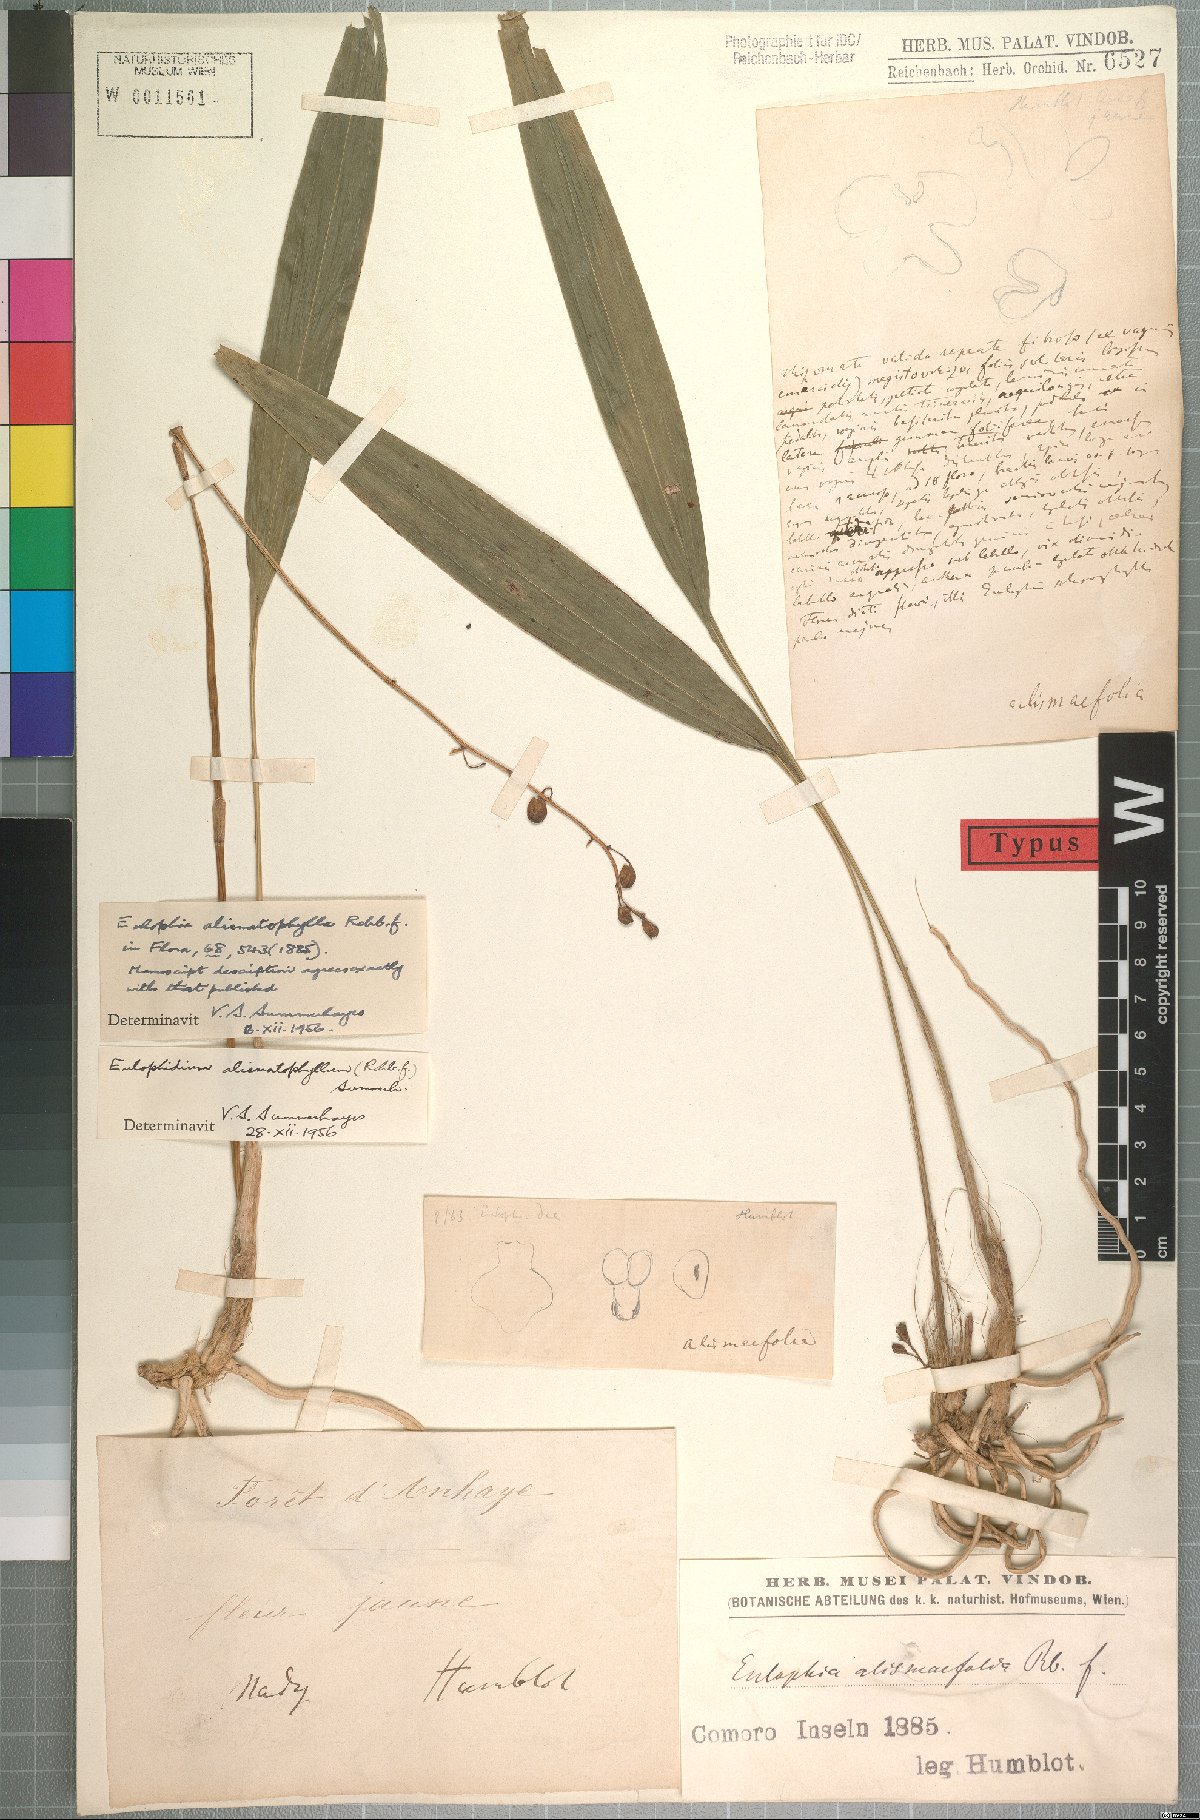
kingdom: Plantae
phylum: Tracheophyta
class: Liliopsida
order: Asparagales
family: Orchidaceae
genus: Eulophia
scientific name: Eulophia alismatophylla
